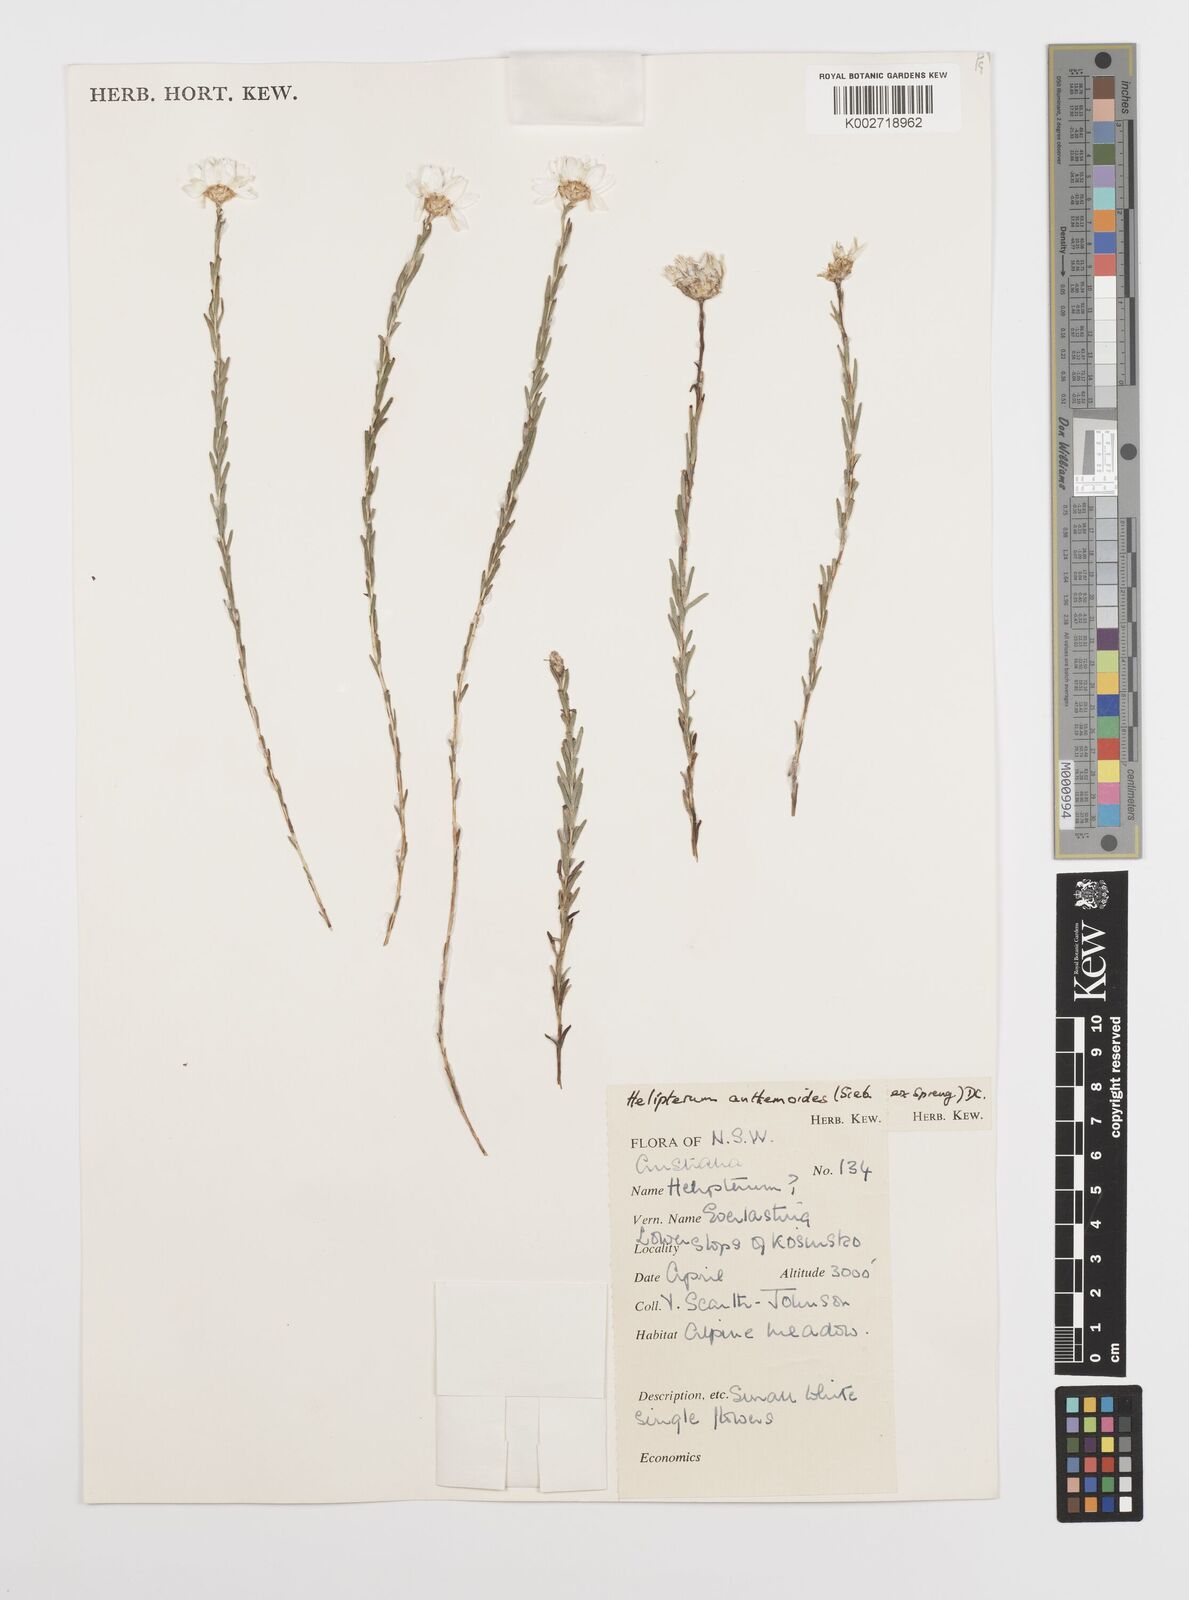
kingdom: Plantae
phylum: Tracheophyta
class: Magnoliopsida
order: Asterales
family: Asteraceae
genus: Rhodanthe
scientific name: Rhodanthe anthemoides
